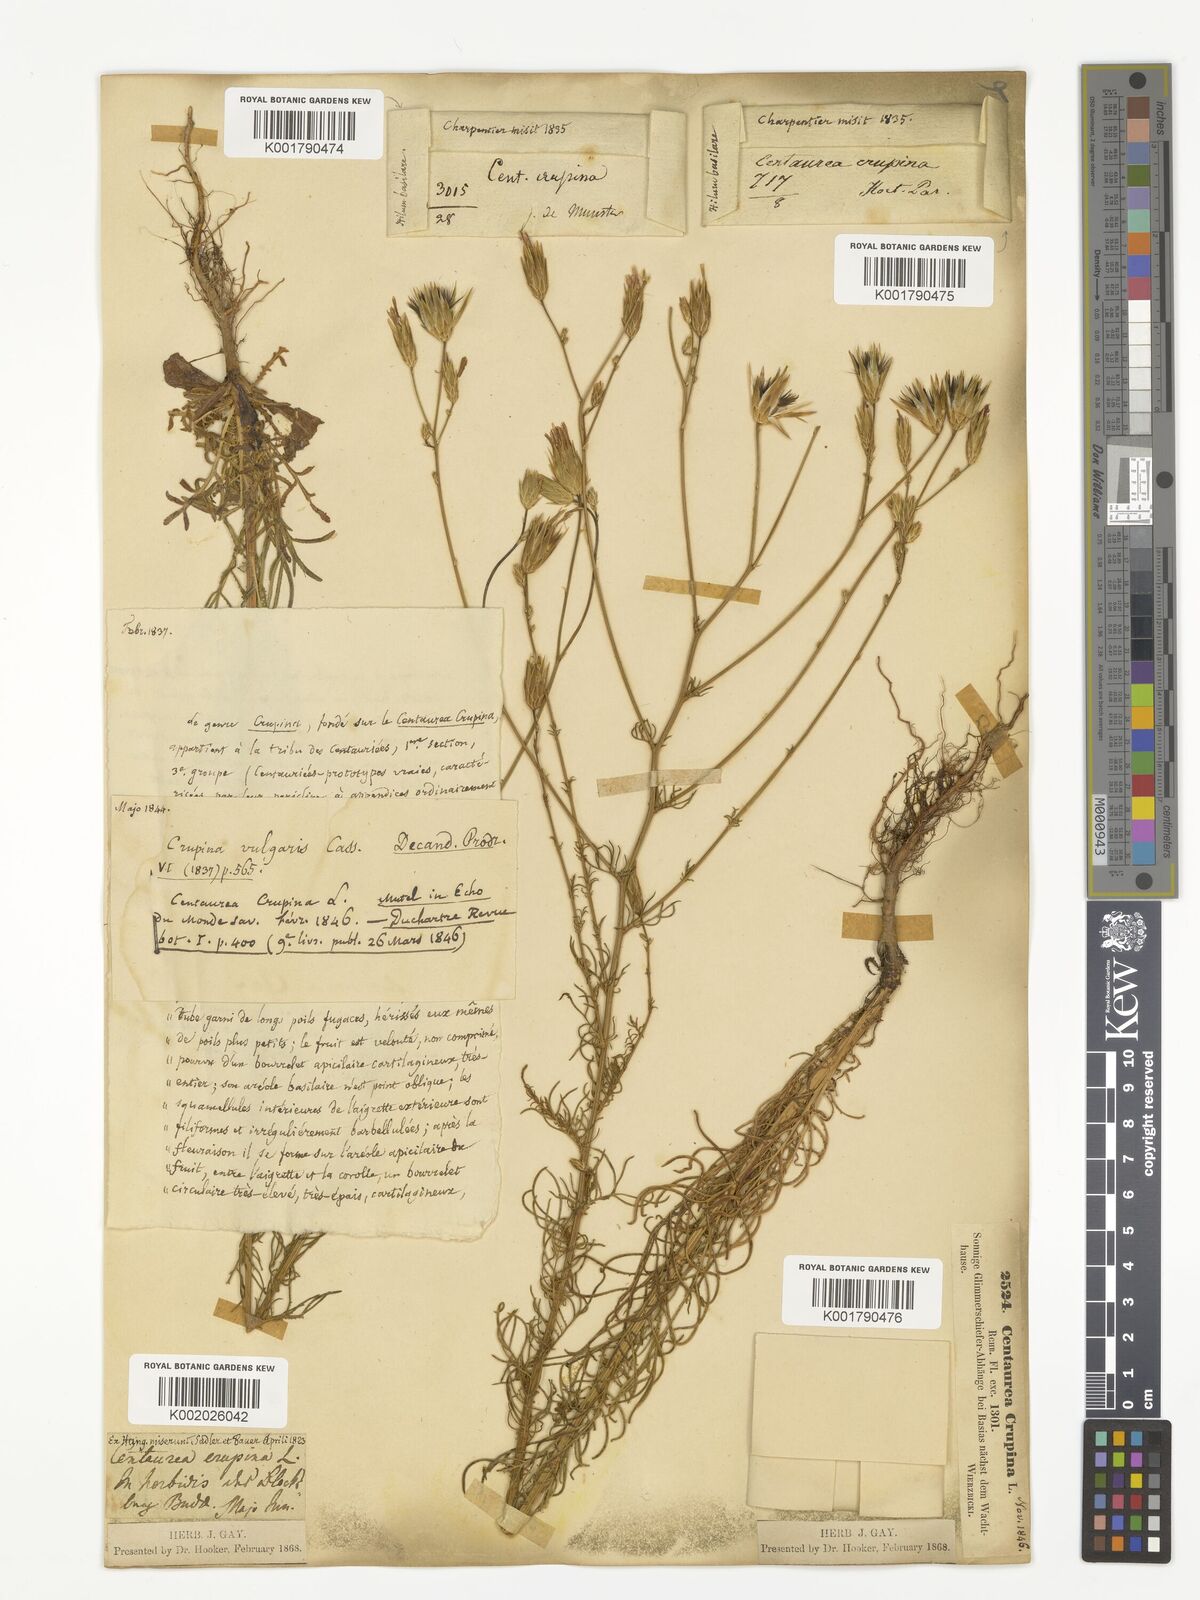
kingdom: Plantae
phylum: Tracheophyta
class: Magnoliopsida
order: Asterales
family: Asteraceae
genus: Crupina
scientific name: Crupina crupinastrum
